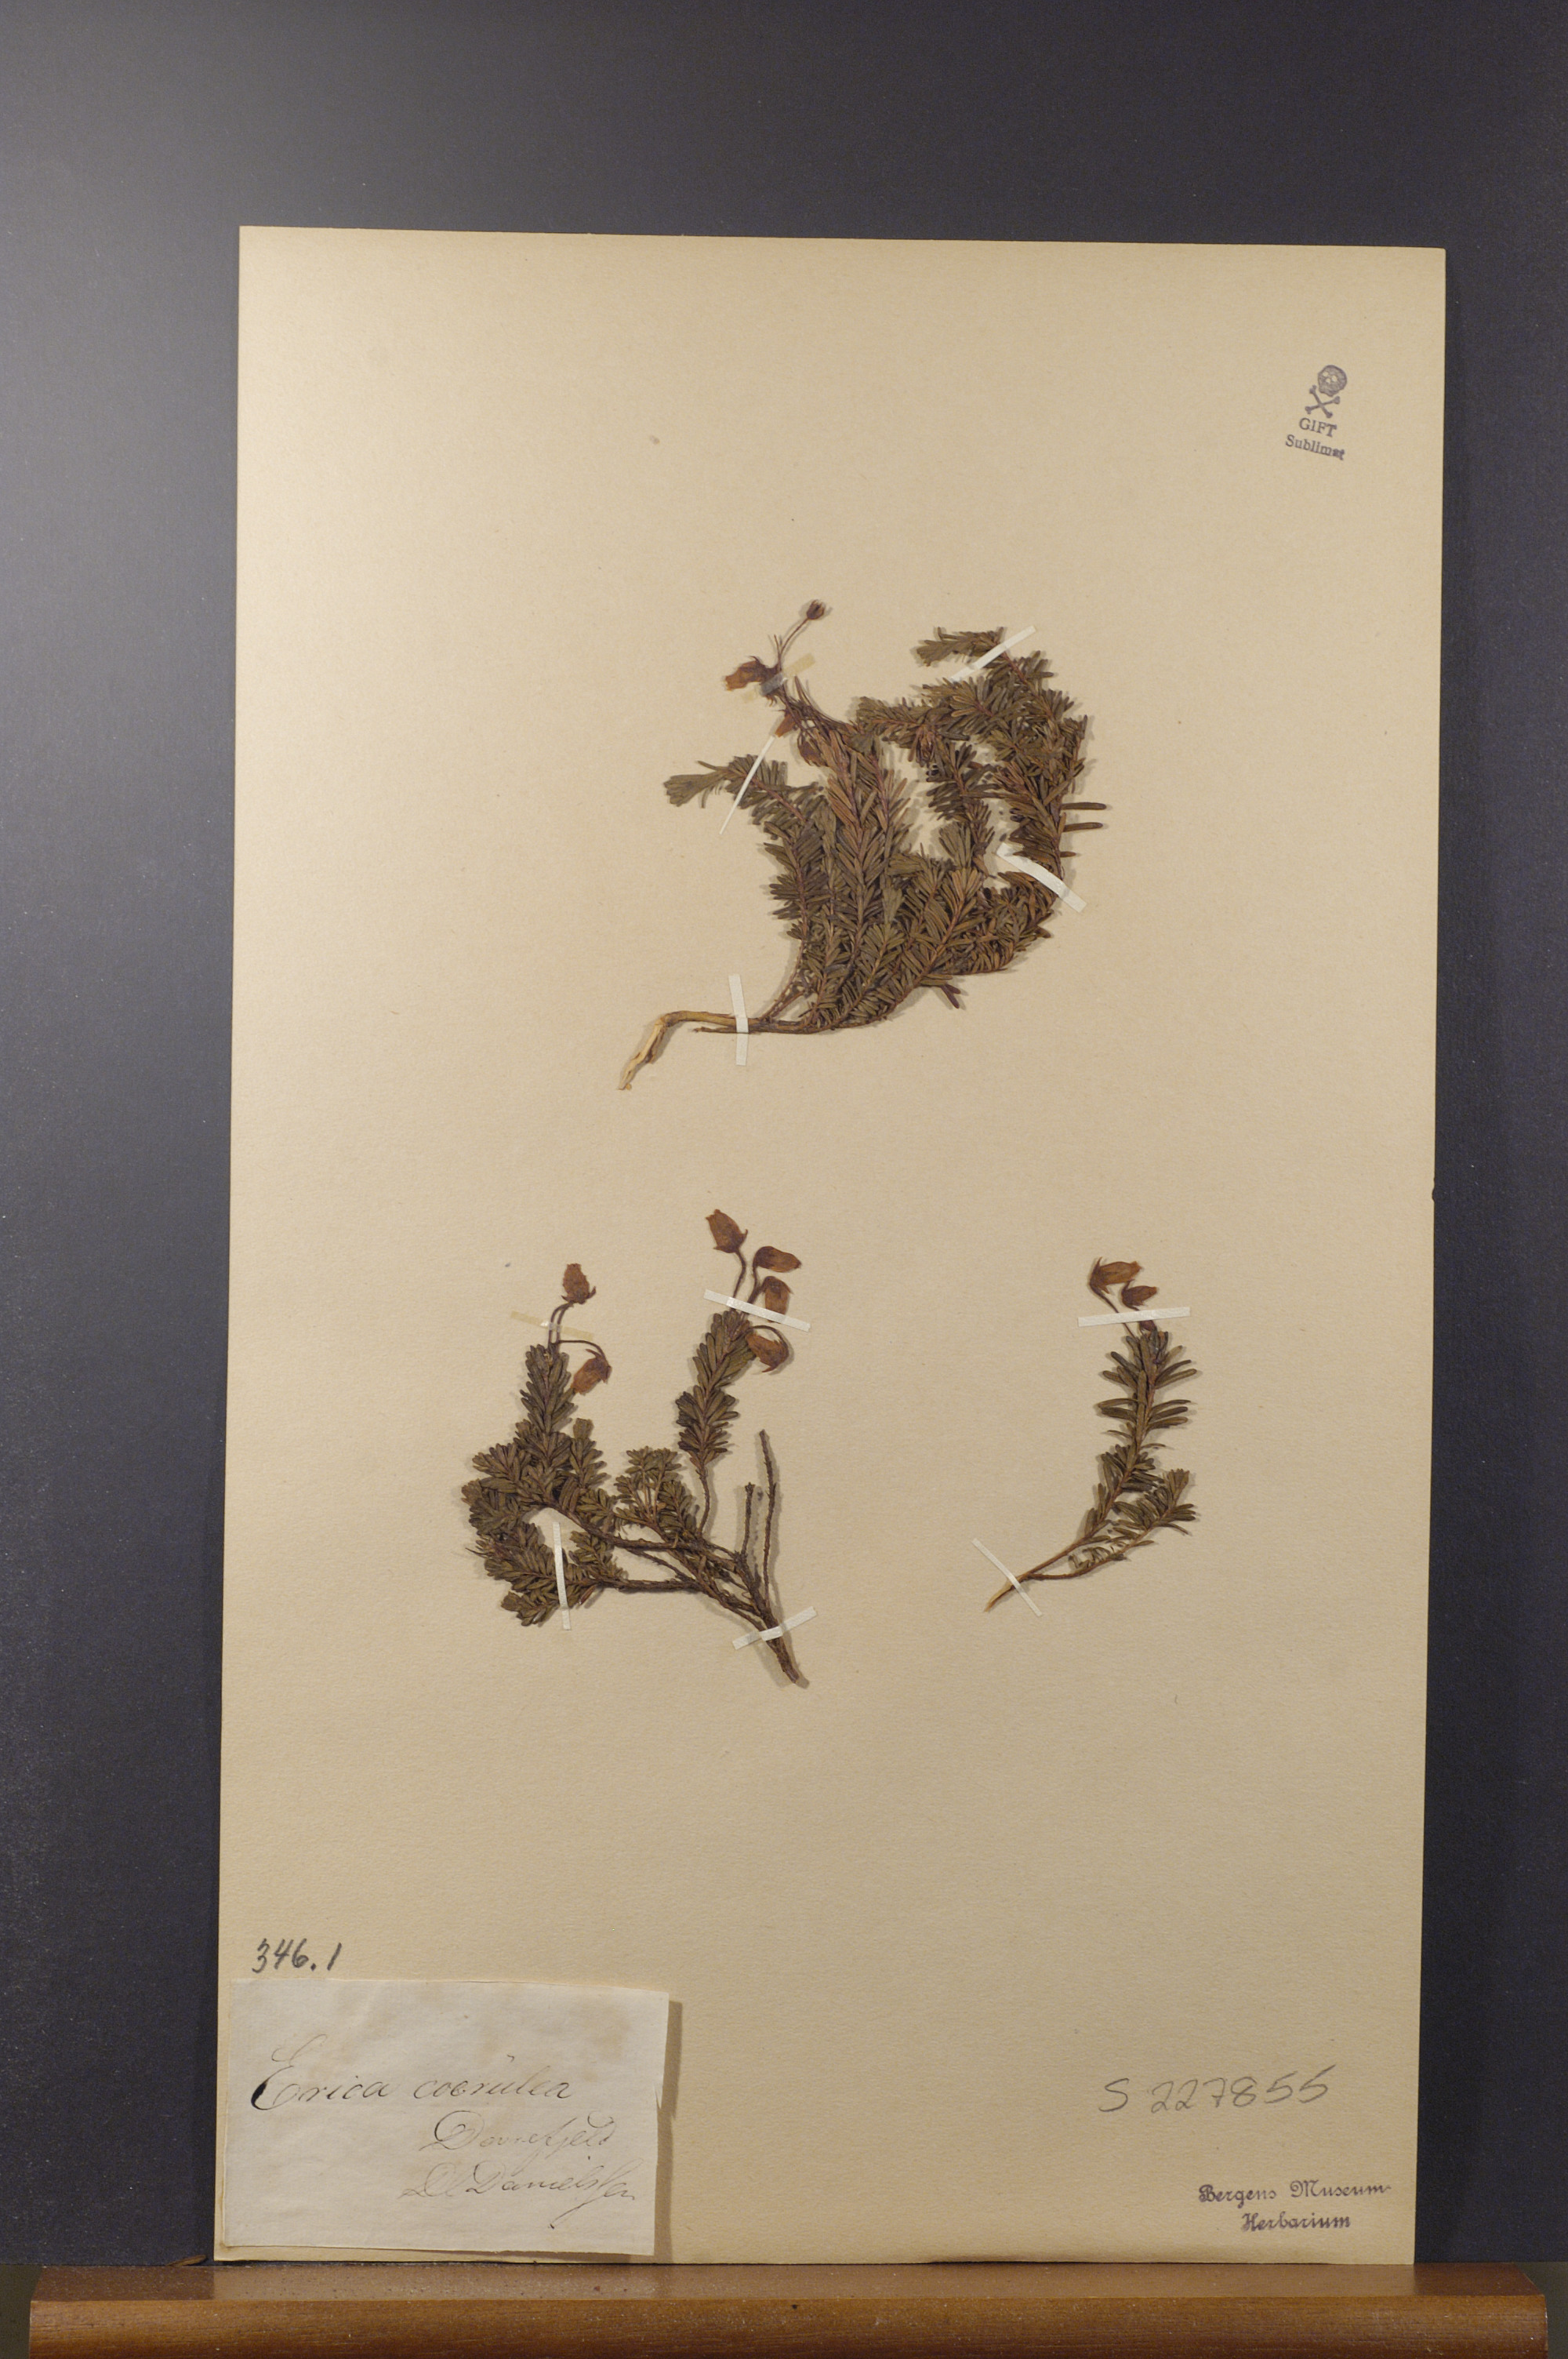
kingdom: Plantae
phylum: Tracheophyta
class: Magnoliopsida
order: Ericales
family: Ericaceae
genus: Phyllodoce
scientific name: Phyllodoce caerulea
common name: Blue heath
